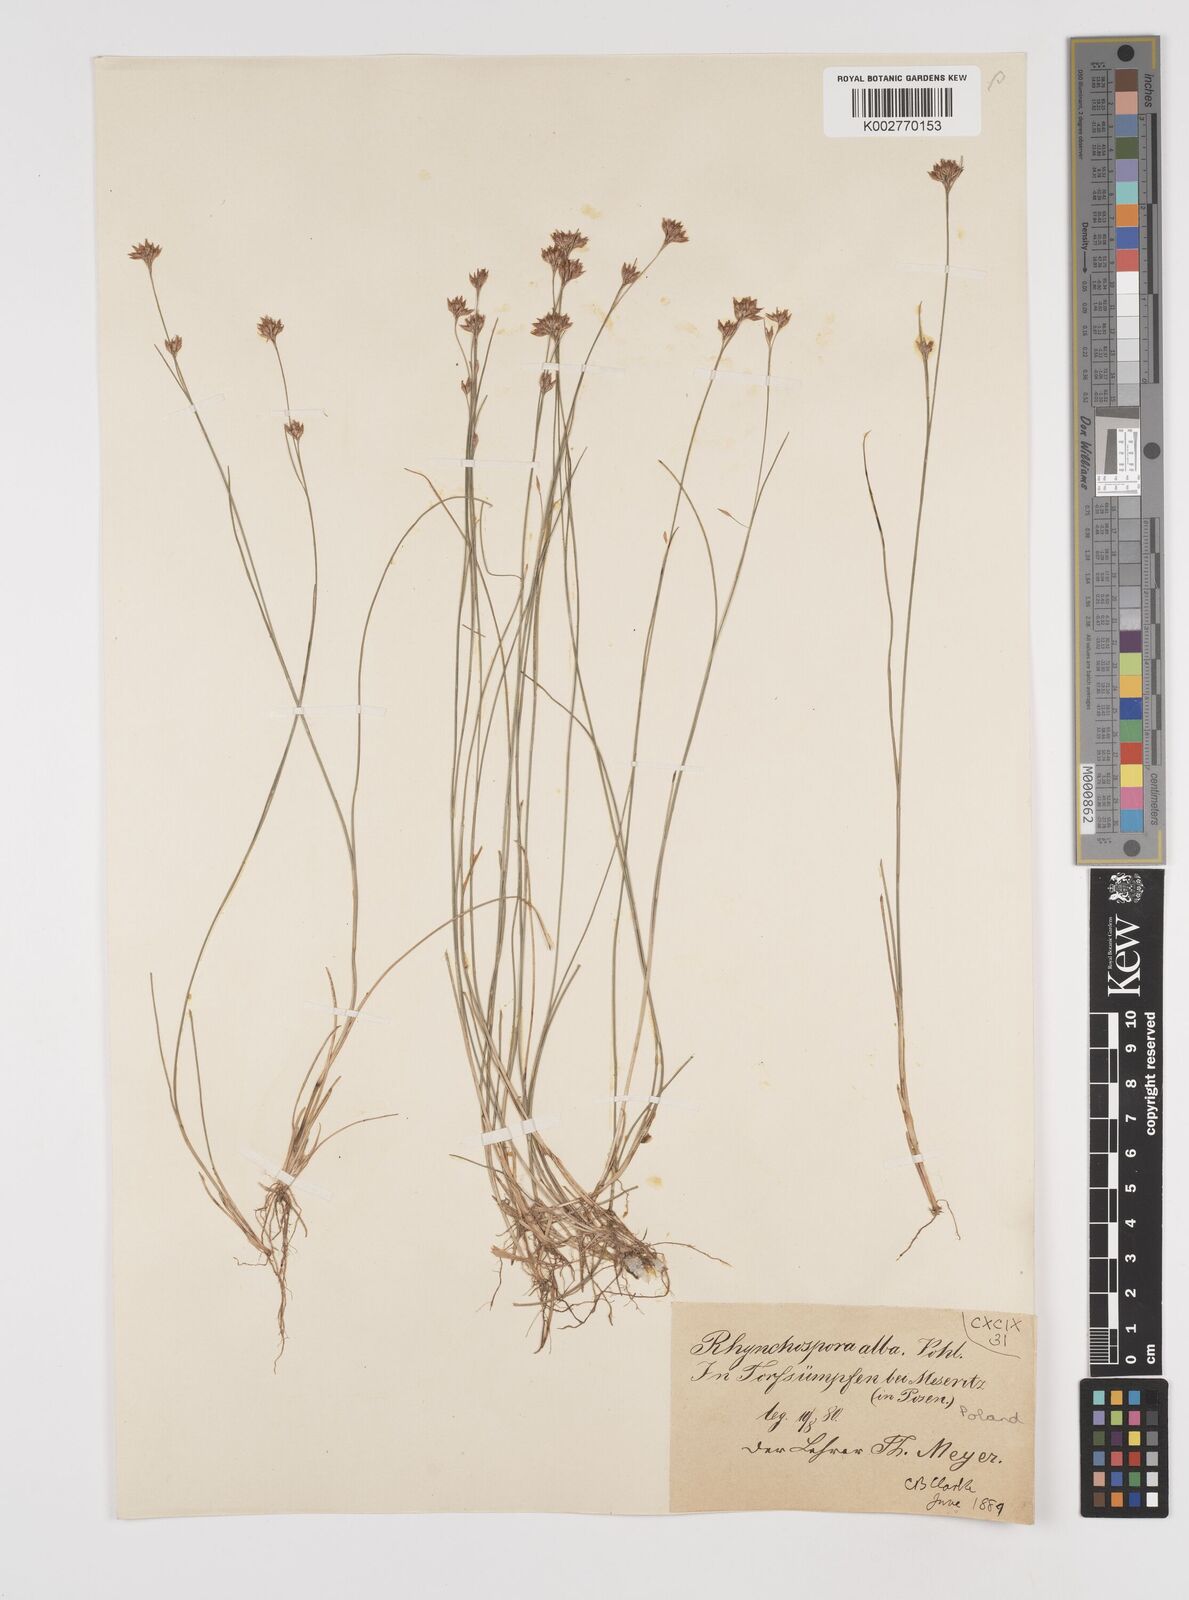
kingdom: Plantae
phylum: Tracheophyta
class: Liliopsida
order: Poales
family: Cyperaceae
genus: Rhynchospora
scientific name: Rhynchospora alba
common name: White beak-sedge
